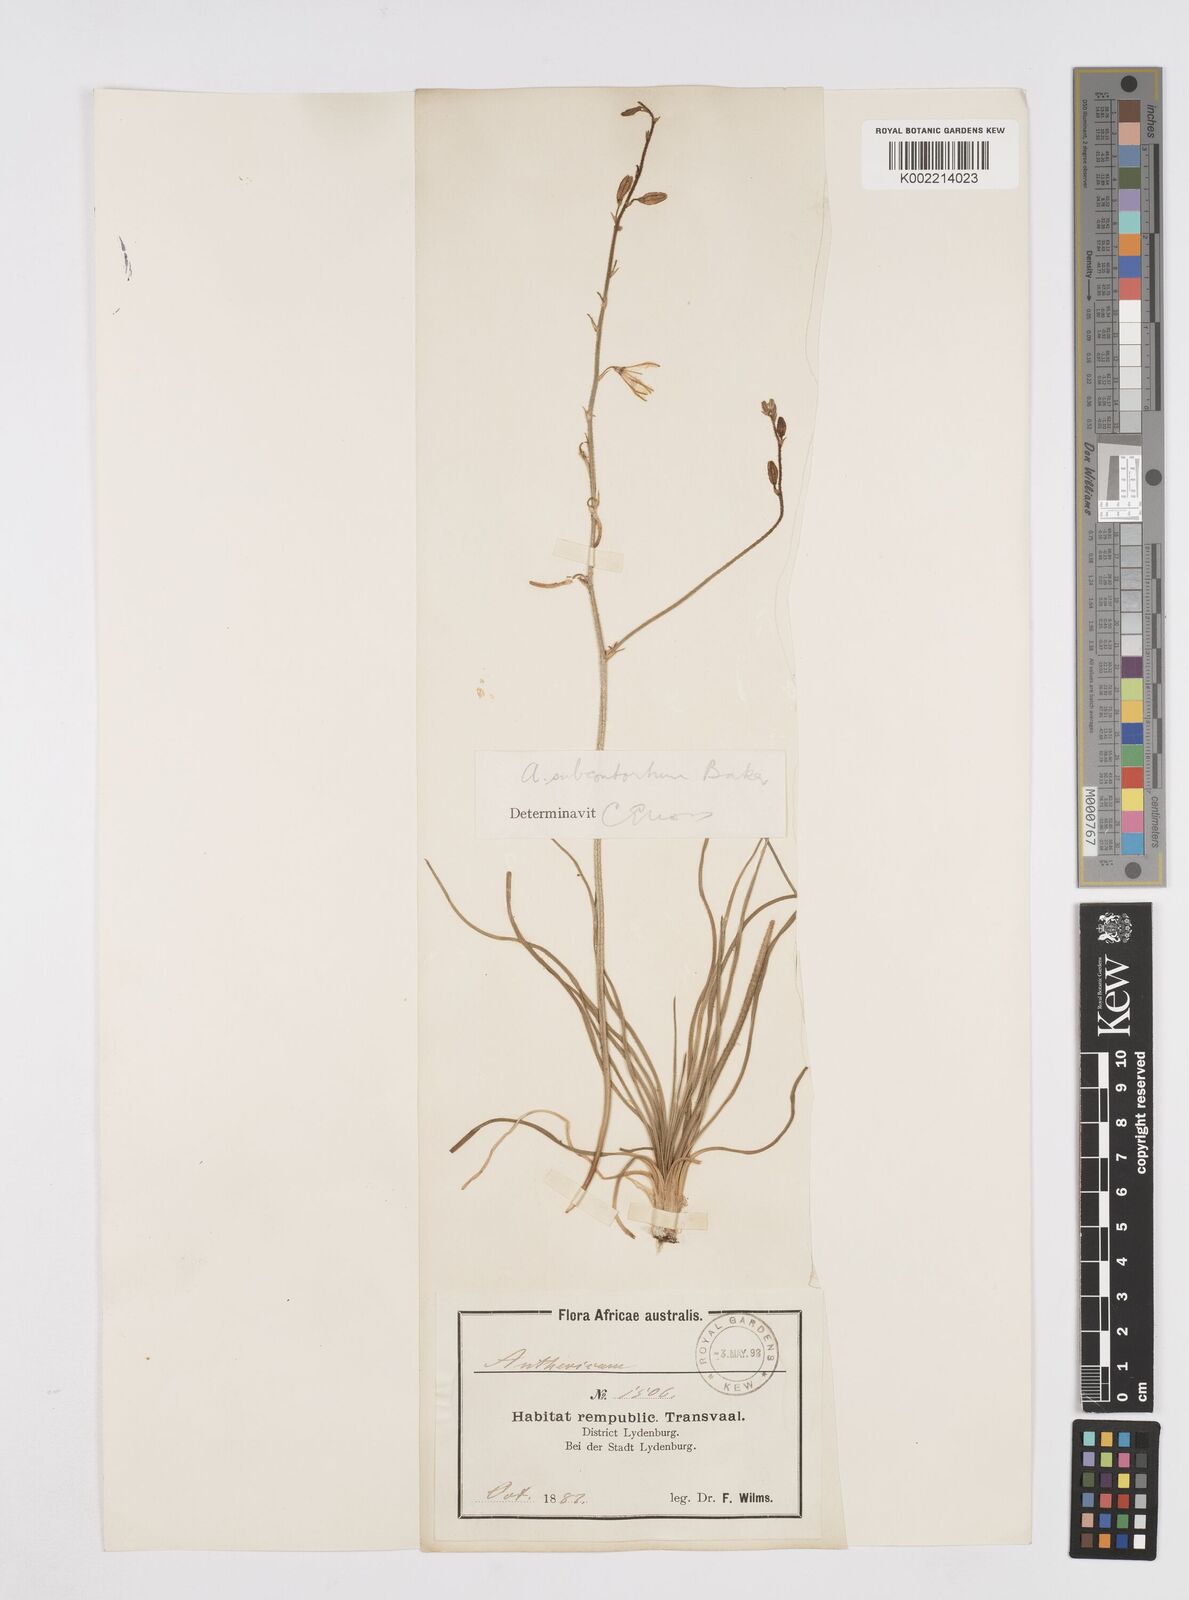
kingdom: Plantae
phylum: Tracheophyta
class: Liliopsida
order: Asparagales
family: Asphodelaceae
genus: Trachyandra
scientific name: Trachyandra gerrardii
